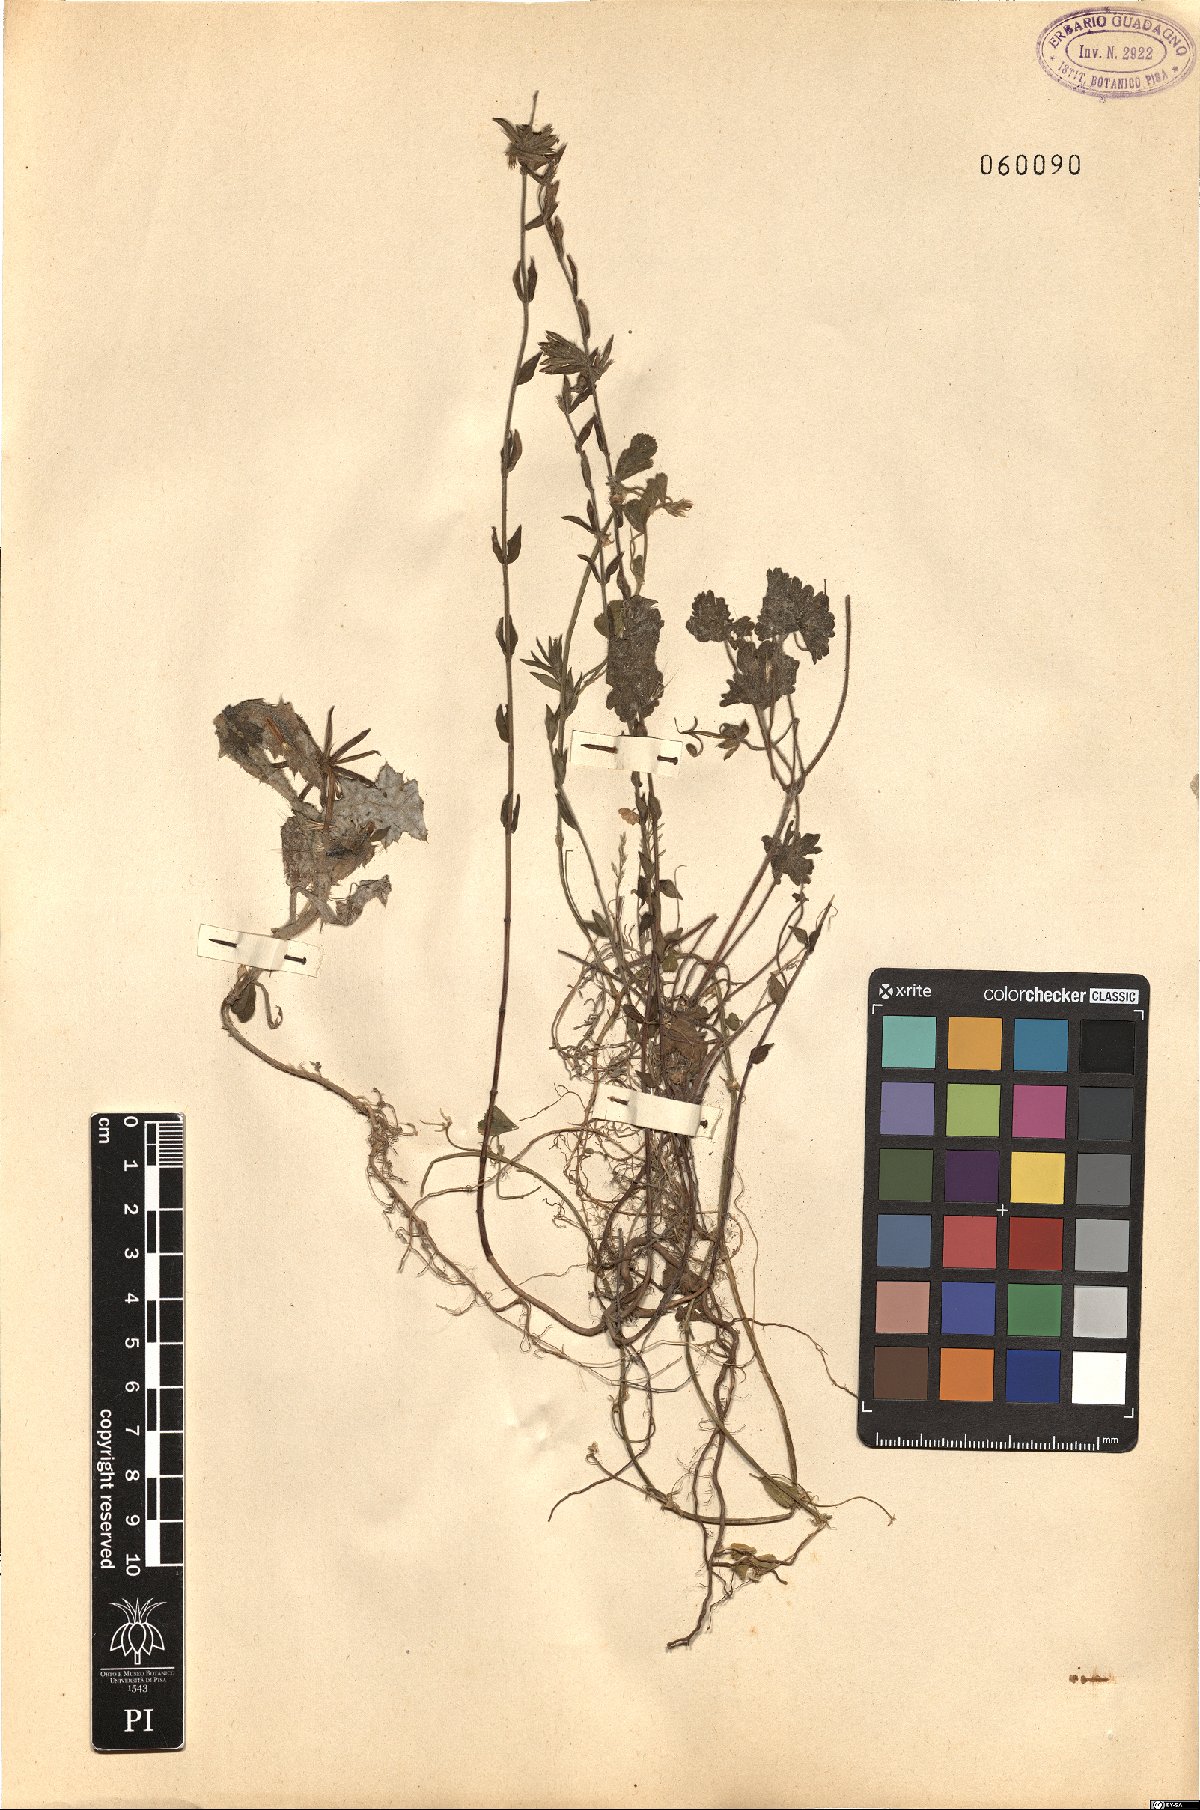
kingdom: Plantae
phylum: Tracheophyta
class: Magnoliopsida
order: Asterales
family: Asteraceae
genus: Rhagadiolus
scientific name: Rhagadiolus
